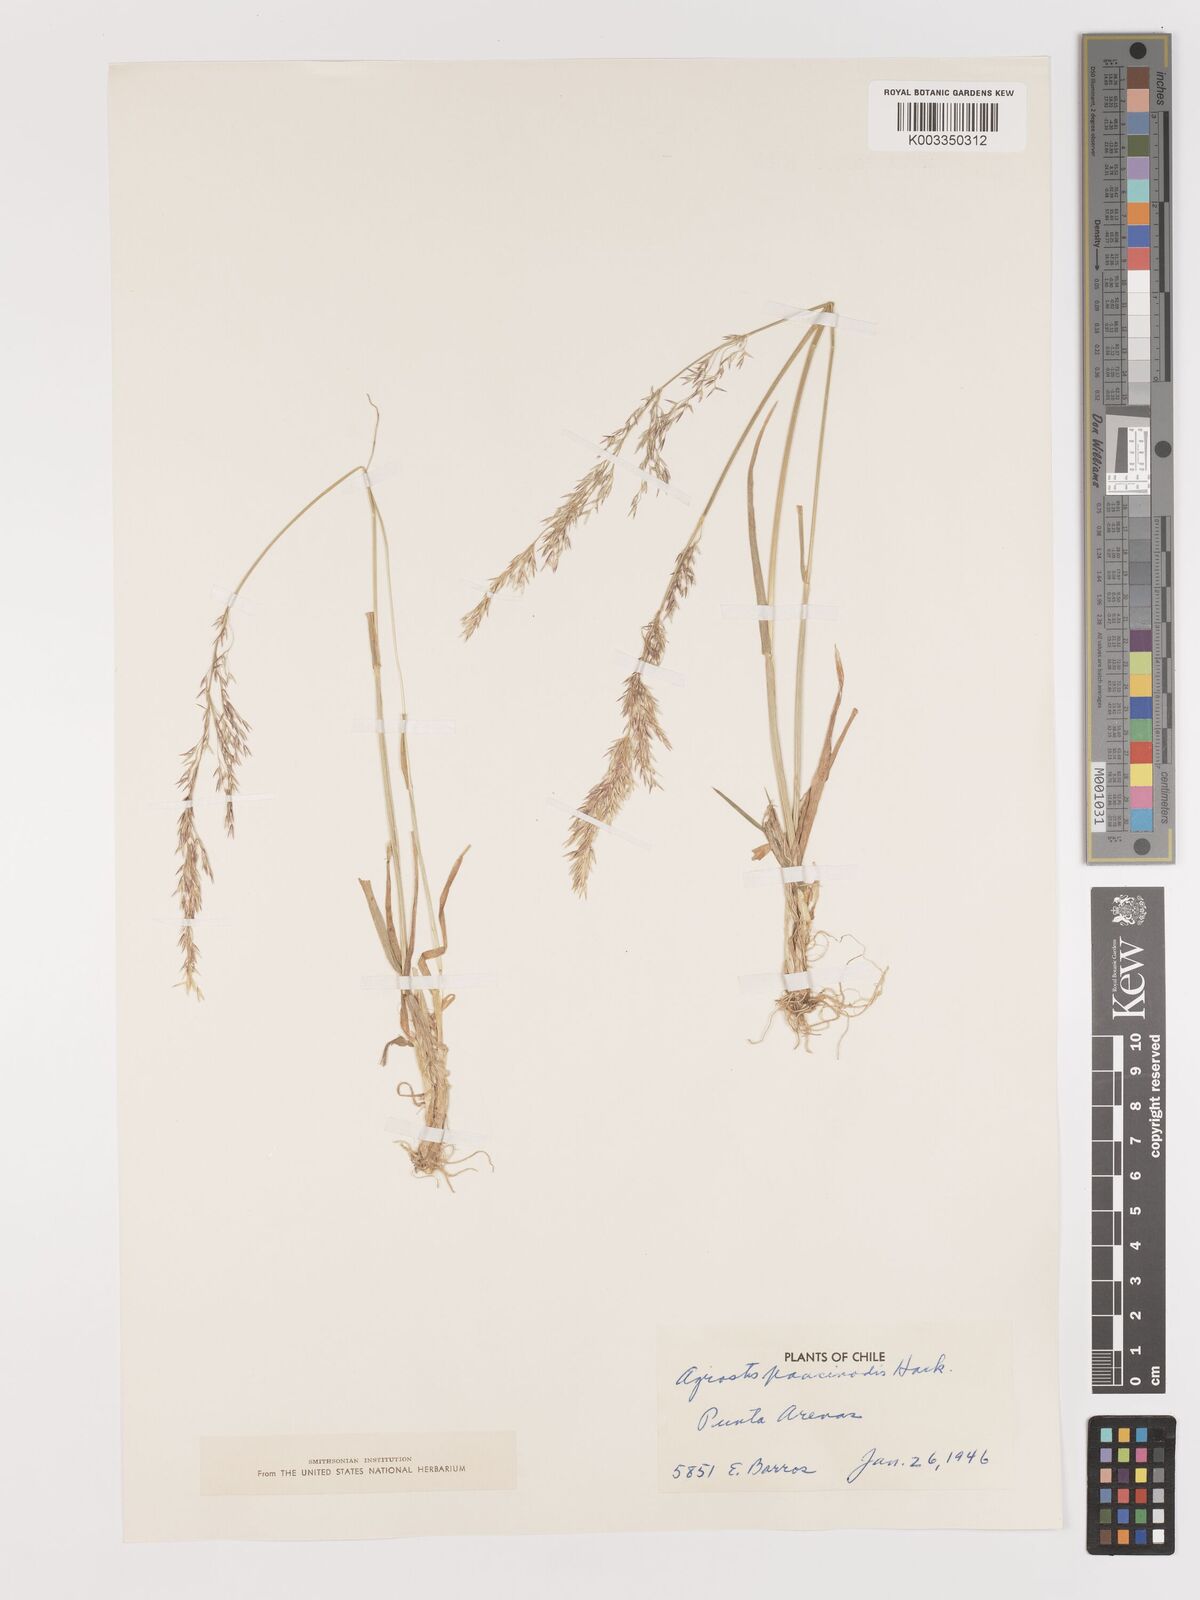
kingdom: Plantae
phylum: Tracheophyta
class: Liliopsida
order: Poales
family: Poaceae
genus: Agrostis
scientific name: Agrostis uliginosa
